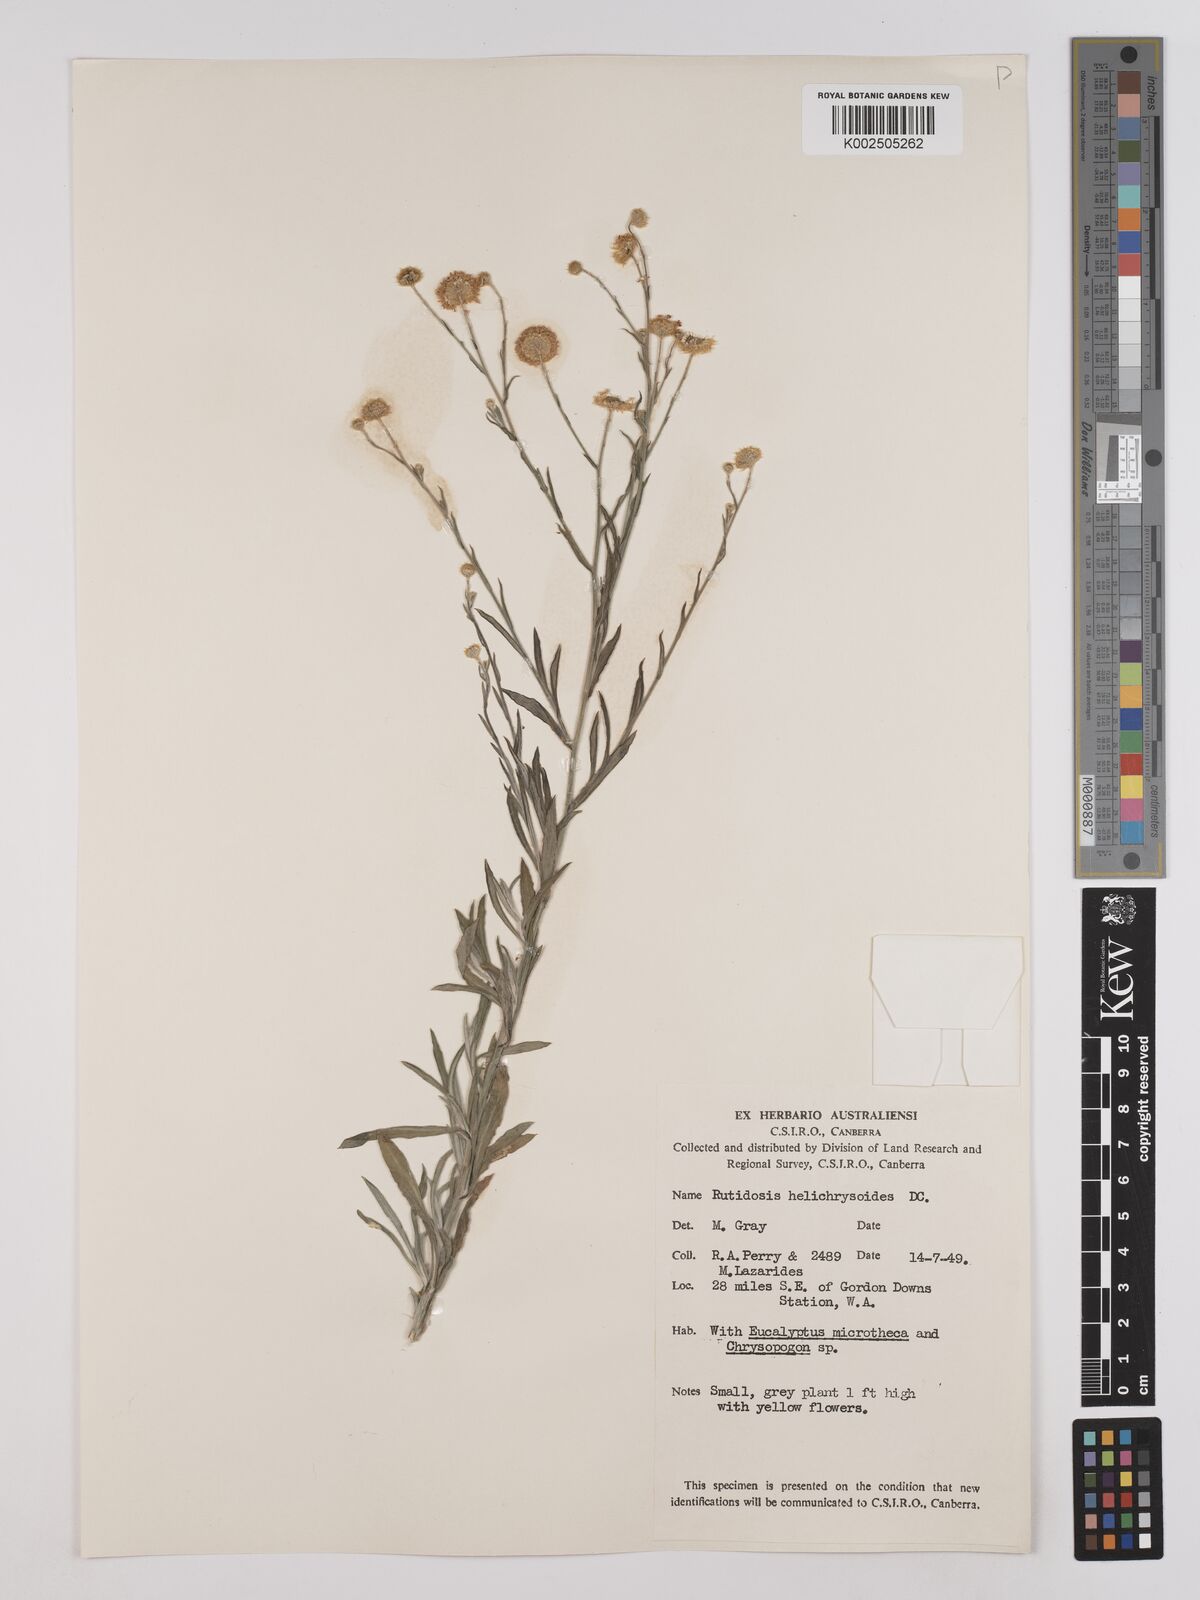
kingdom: Plantae
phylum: Tracheophyta
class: Magnoliopsida
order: Asterales
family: Asteraceae
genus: Rutidosis
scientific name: Rutidosis helichrysoides
